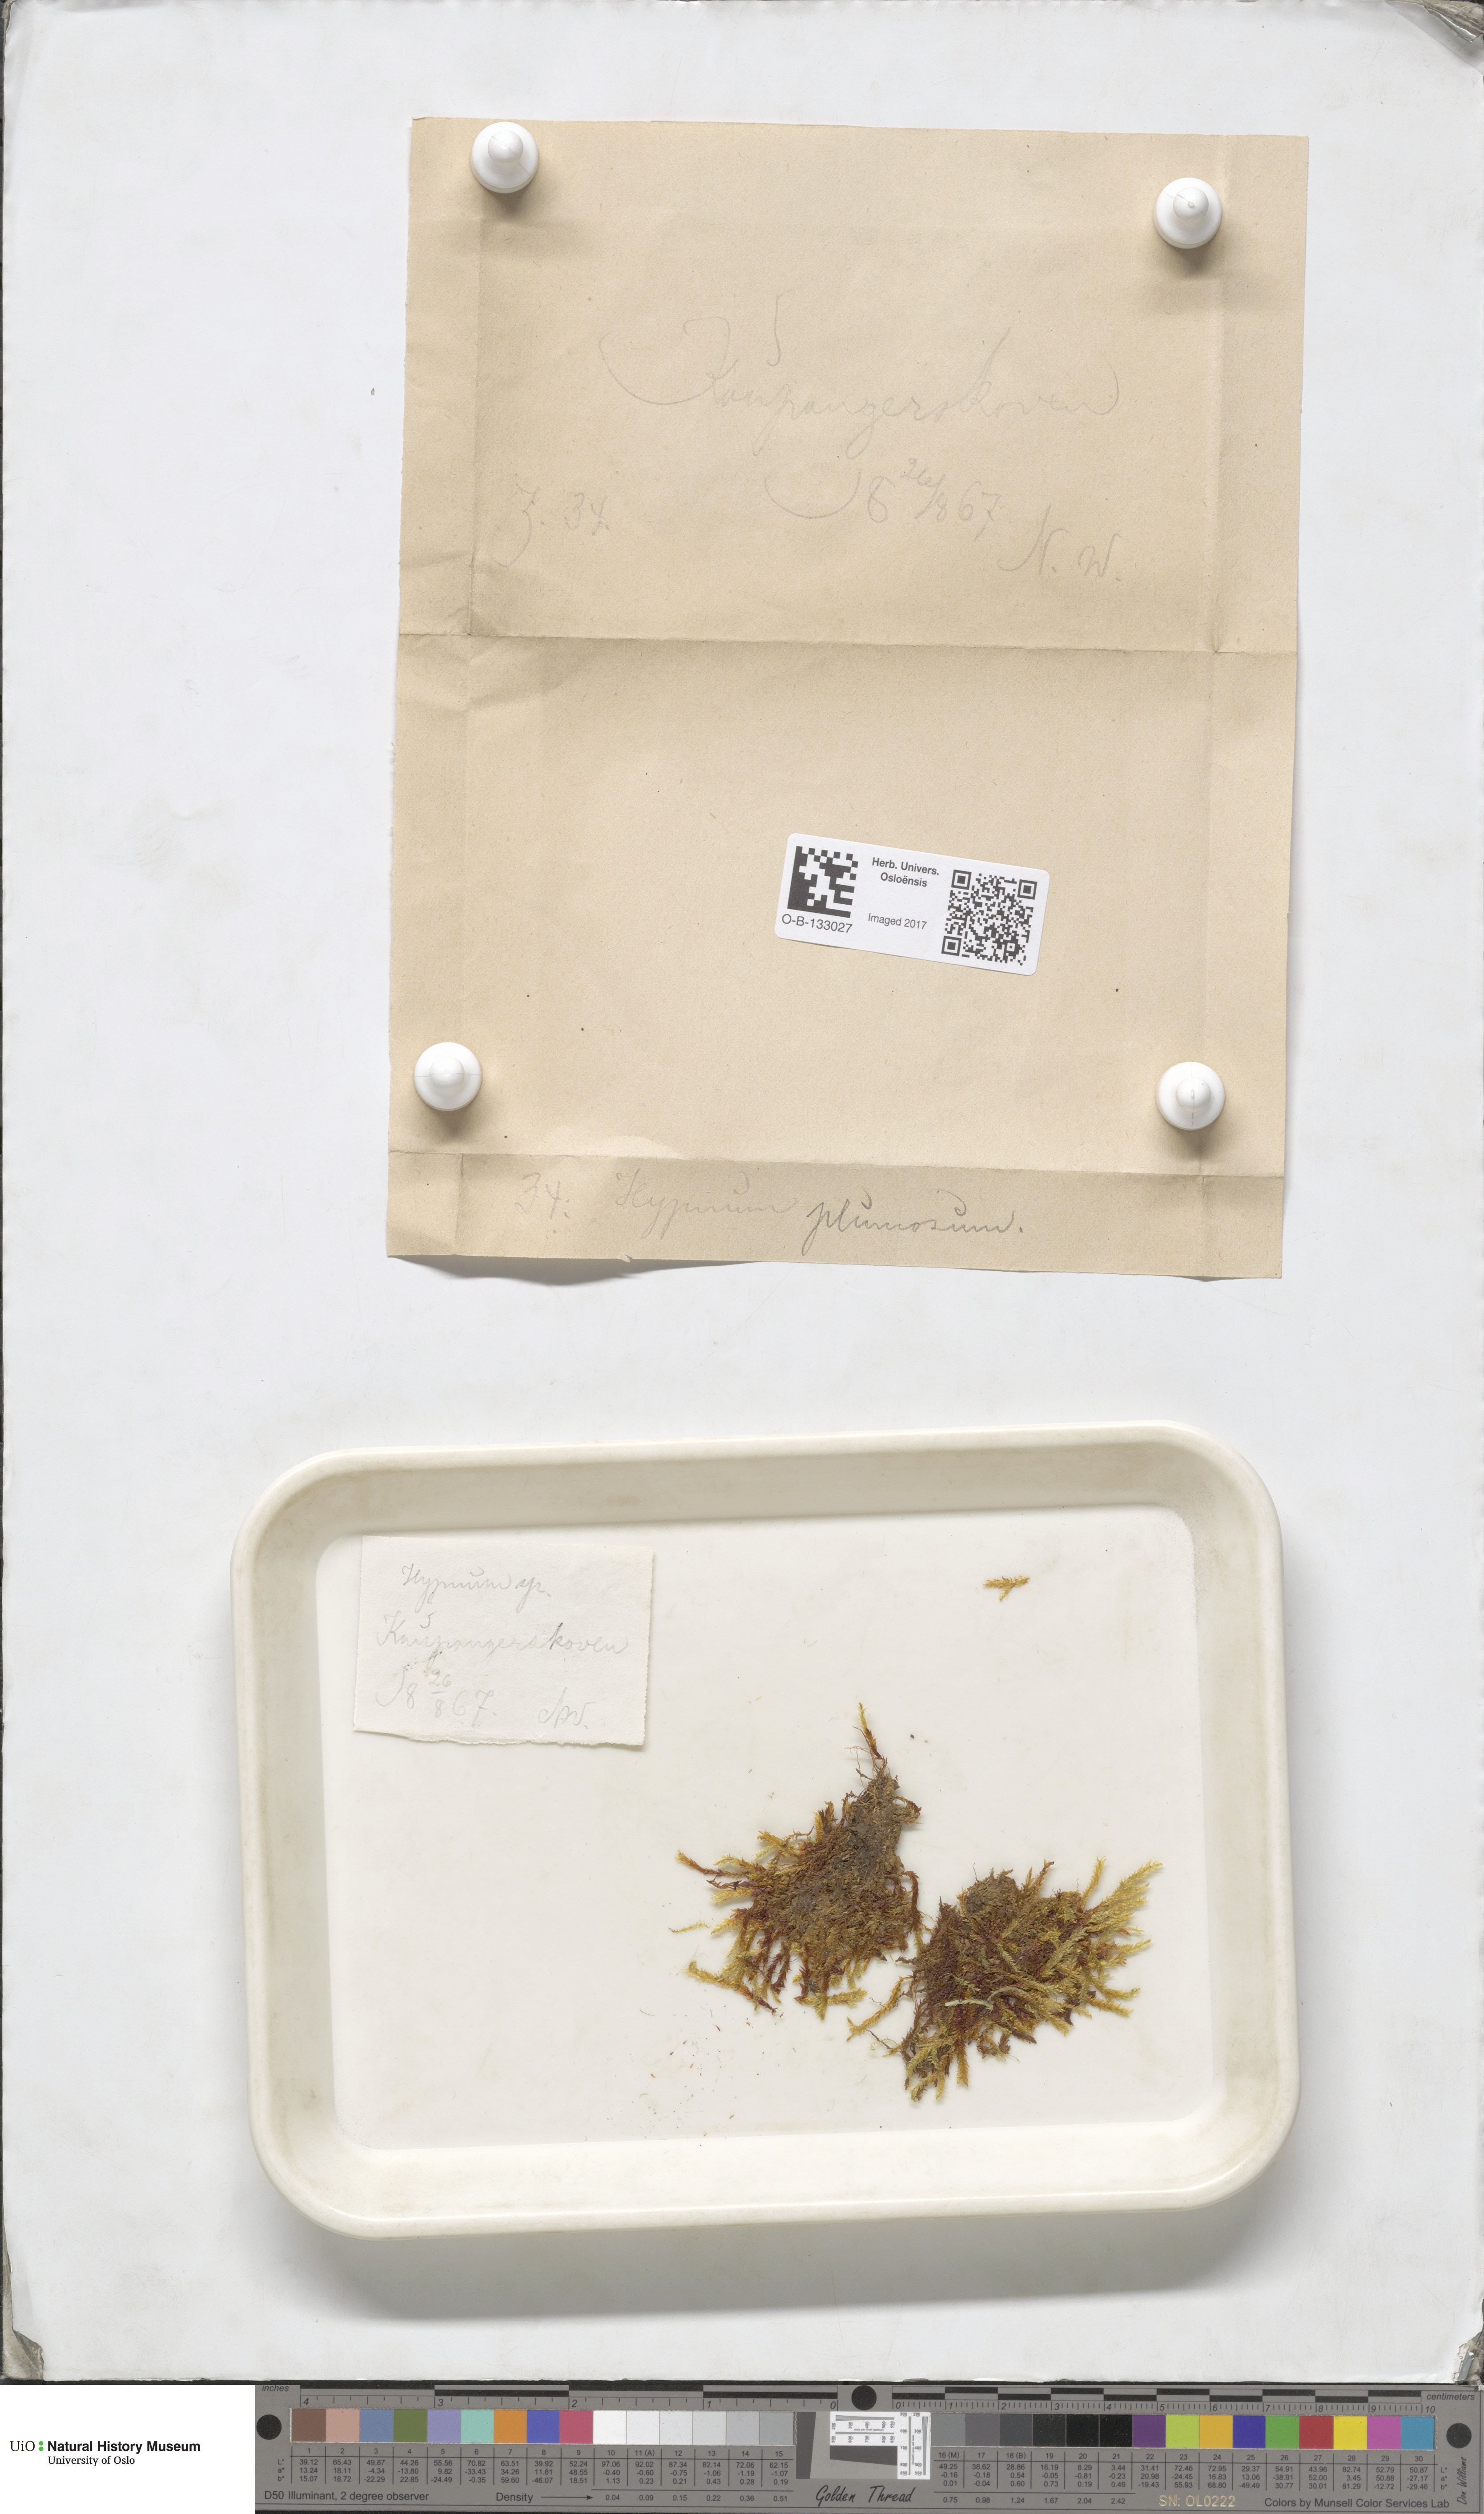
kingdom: Plantae
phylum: Bryophyta
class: Bryopsida
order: Hypnales
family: Brachytheciaceae
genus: Sciuro-hypnum
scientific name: Sciuro-hypnum plumosum
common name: Rusty feather-moss
